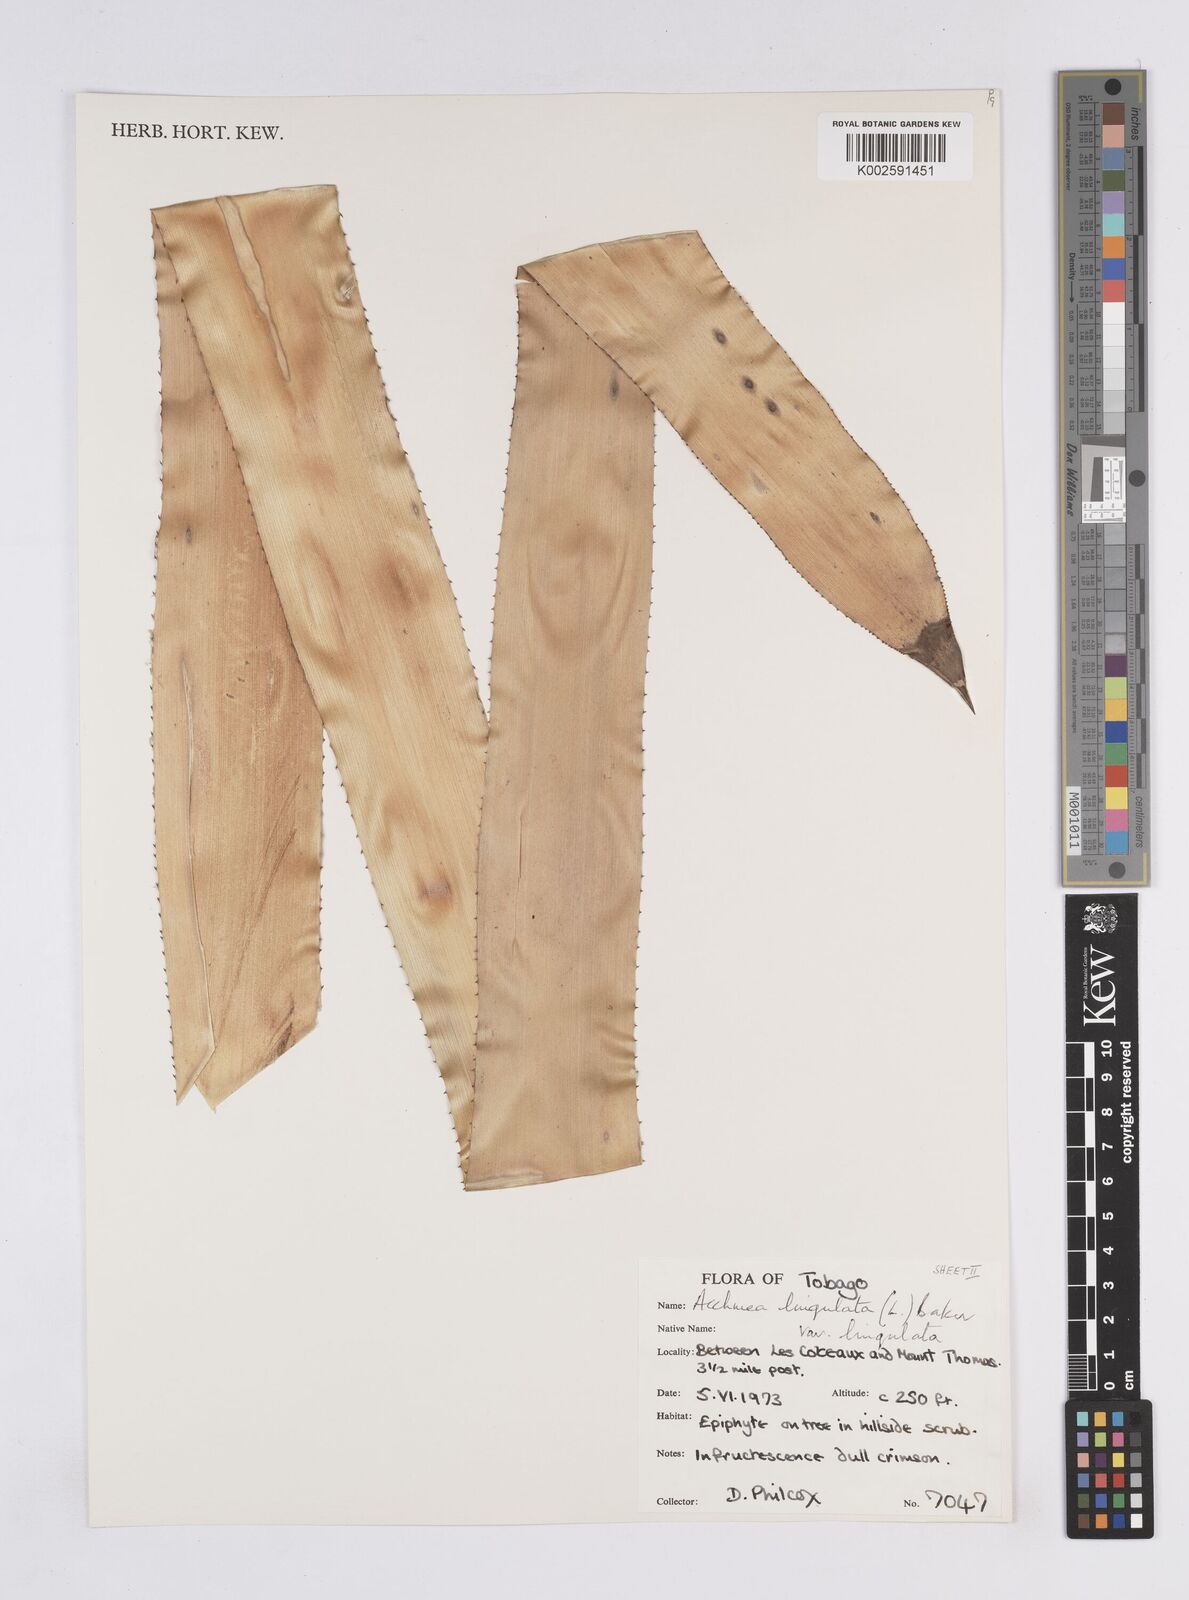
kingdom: Plantae
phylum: Tracheophyta
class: Liliopsida
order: Poales
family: Bromeliaceae
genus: Wittmackia
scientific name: Wittmackia lingulata
